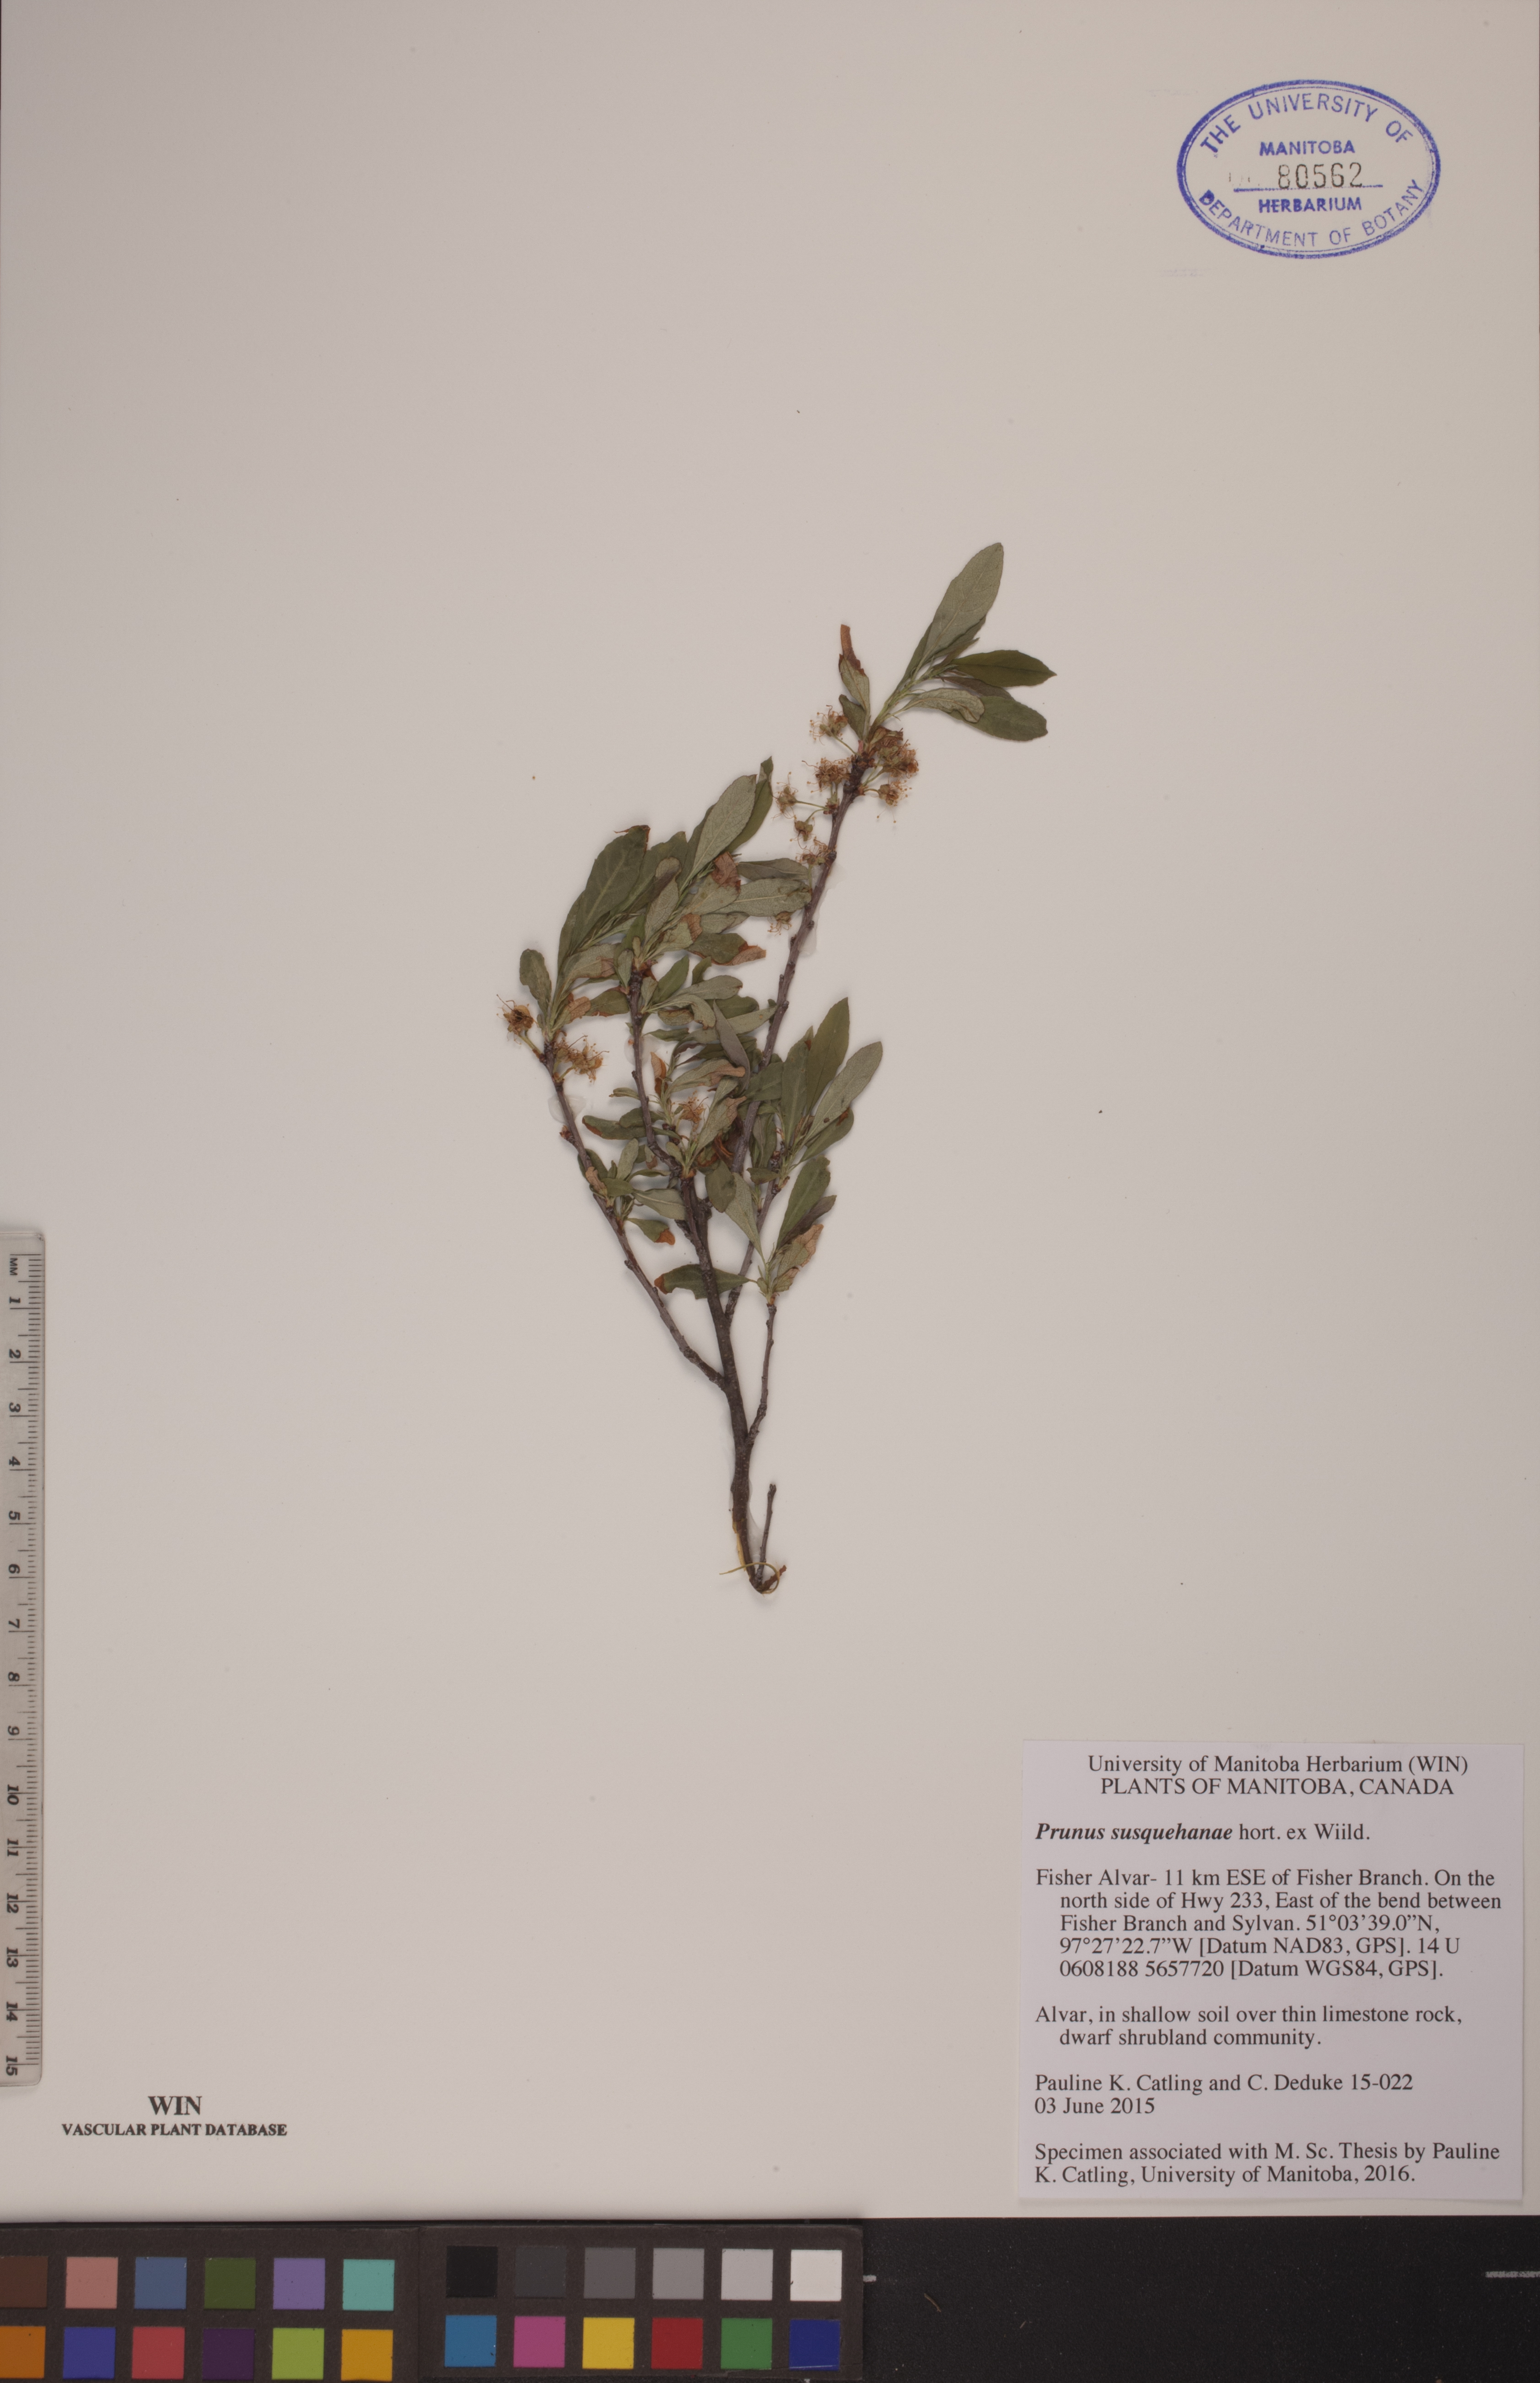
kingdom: Plantae
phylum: Tracheophyta
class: Magnoliopsida
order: Rosales
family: Rosaceae
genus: Prunus
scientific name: Prunus susquehanae
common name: Sesquehana sandcherry
